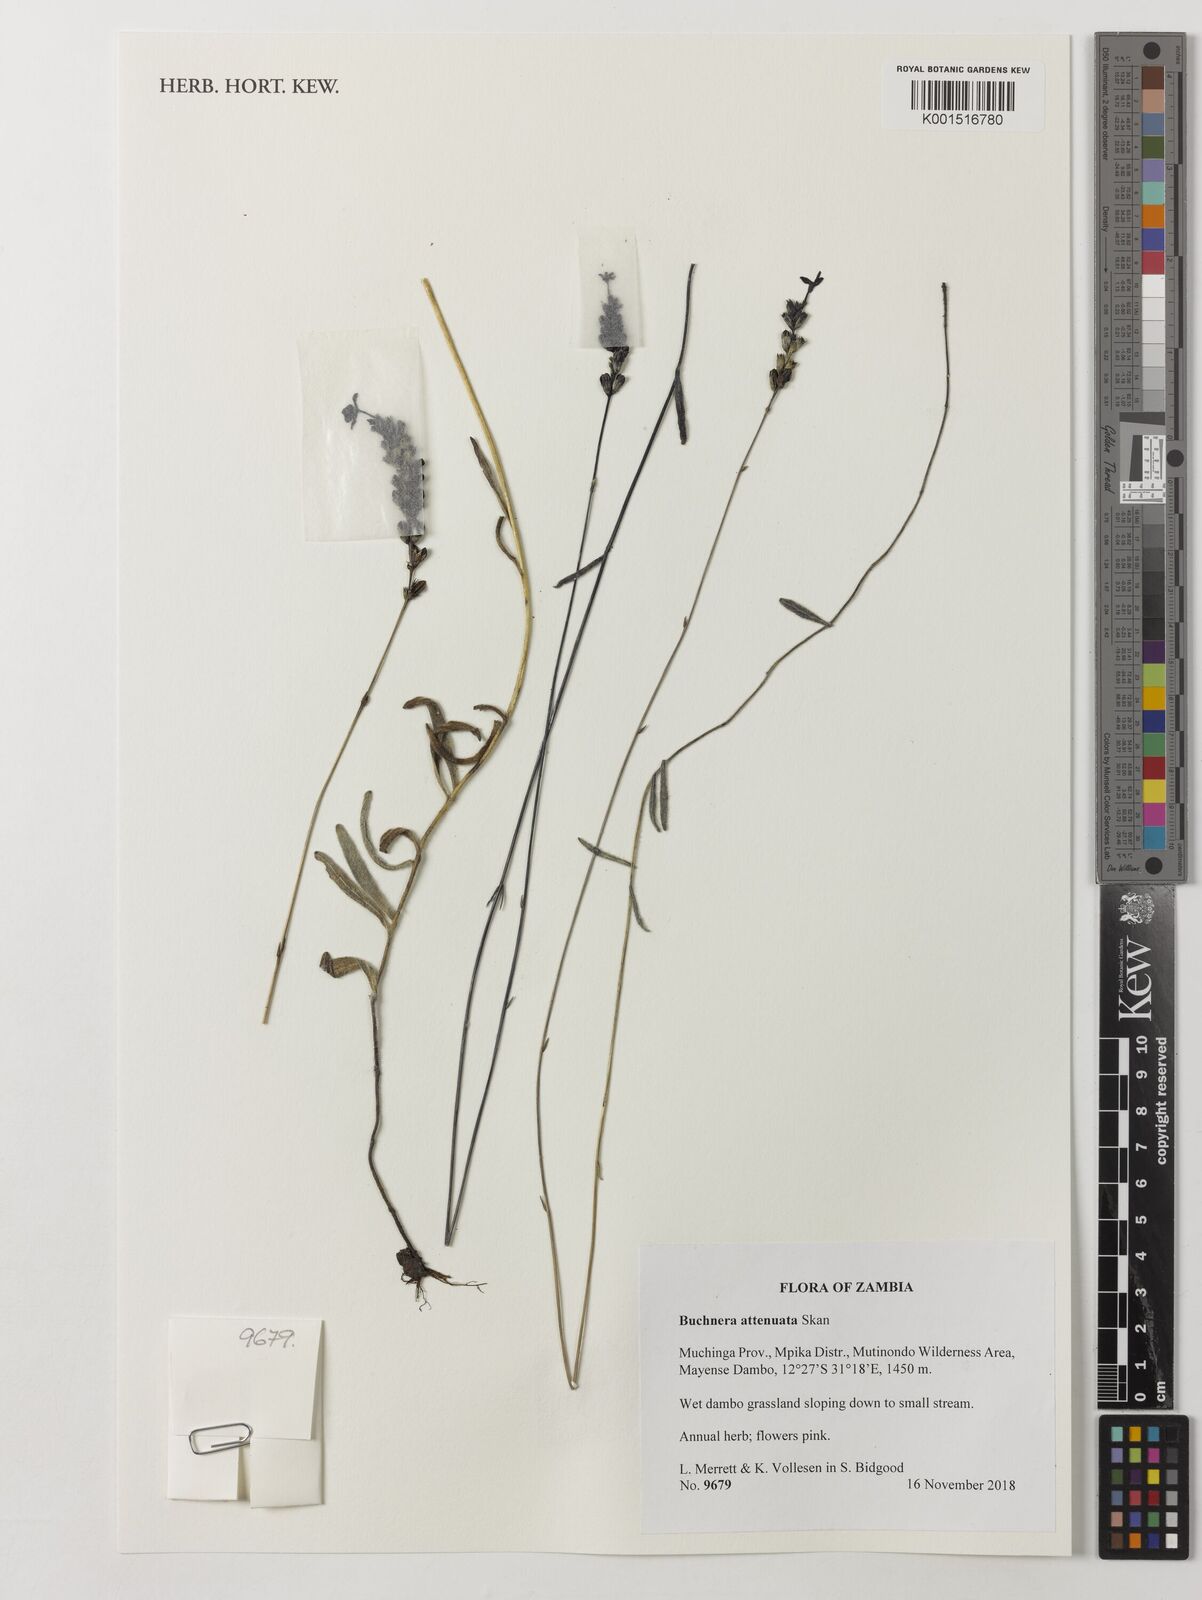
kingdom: Plantae
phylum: Tracheophyta
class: Magnoliopsida
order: Lamiales
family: Orobanchaceae
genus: Buchnera
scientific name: Buchnera attenuata
